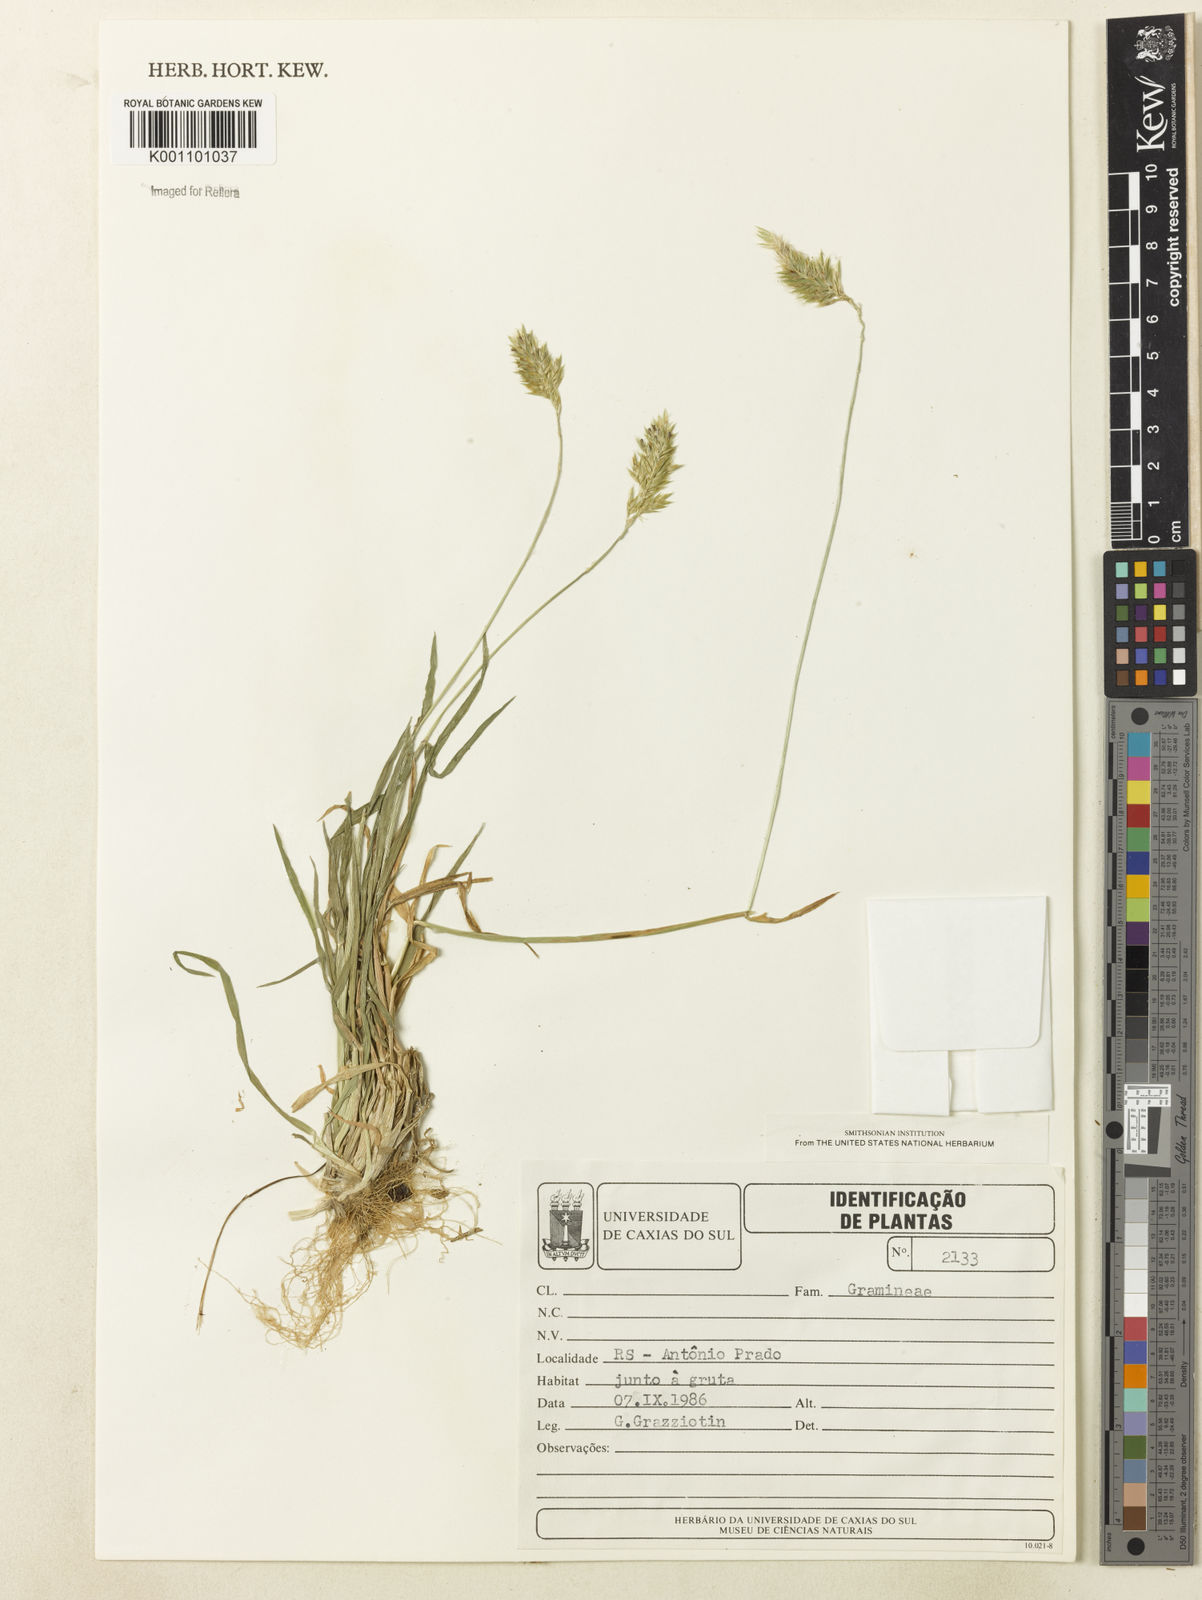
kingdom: Plantae
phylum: Tracheophyta
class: Liliopsida
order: Poales
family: Poaceae
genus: Anthoxanthum
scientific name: Anthoxanthum odoratum
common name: Sweet vernalgrass
